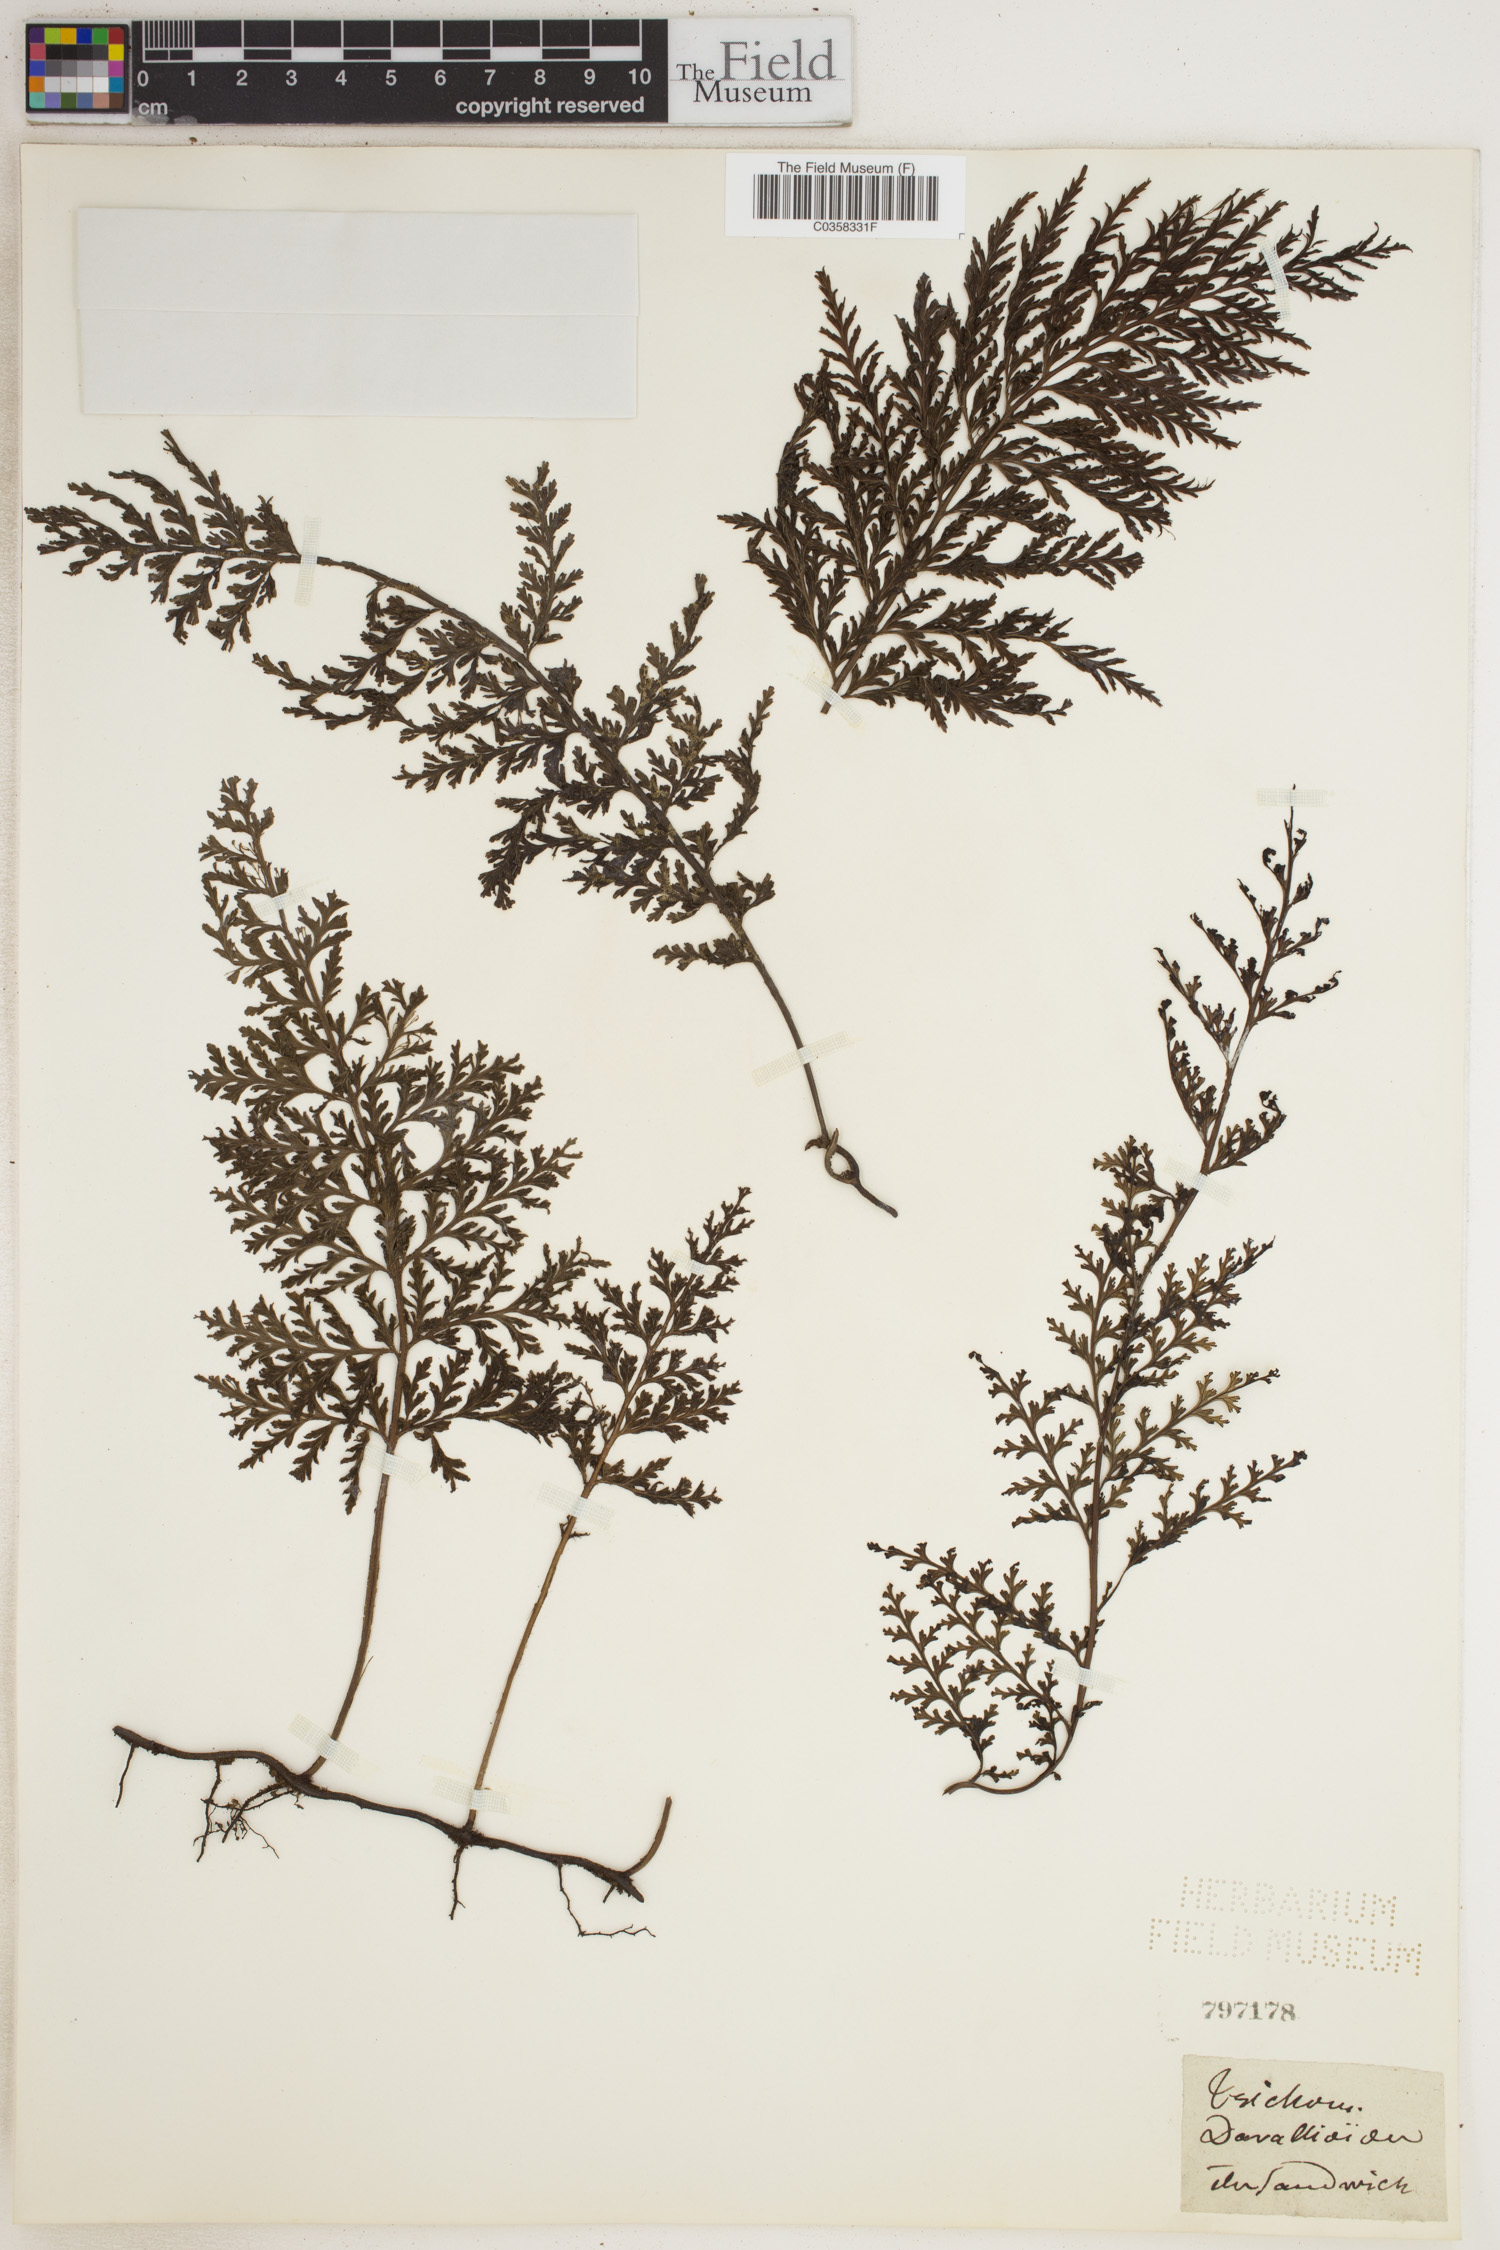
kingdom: Plantae
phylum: Tracheophyta
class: Polypodiopsida
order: Hymenophyllales
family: Hymenophyllaceae
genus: Vandenboschia
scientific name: Vandenboschia davallioides
